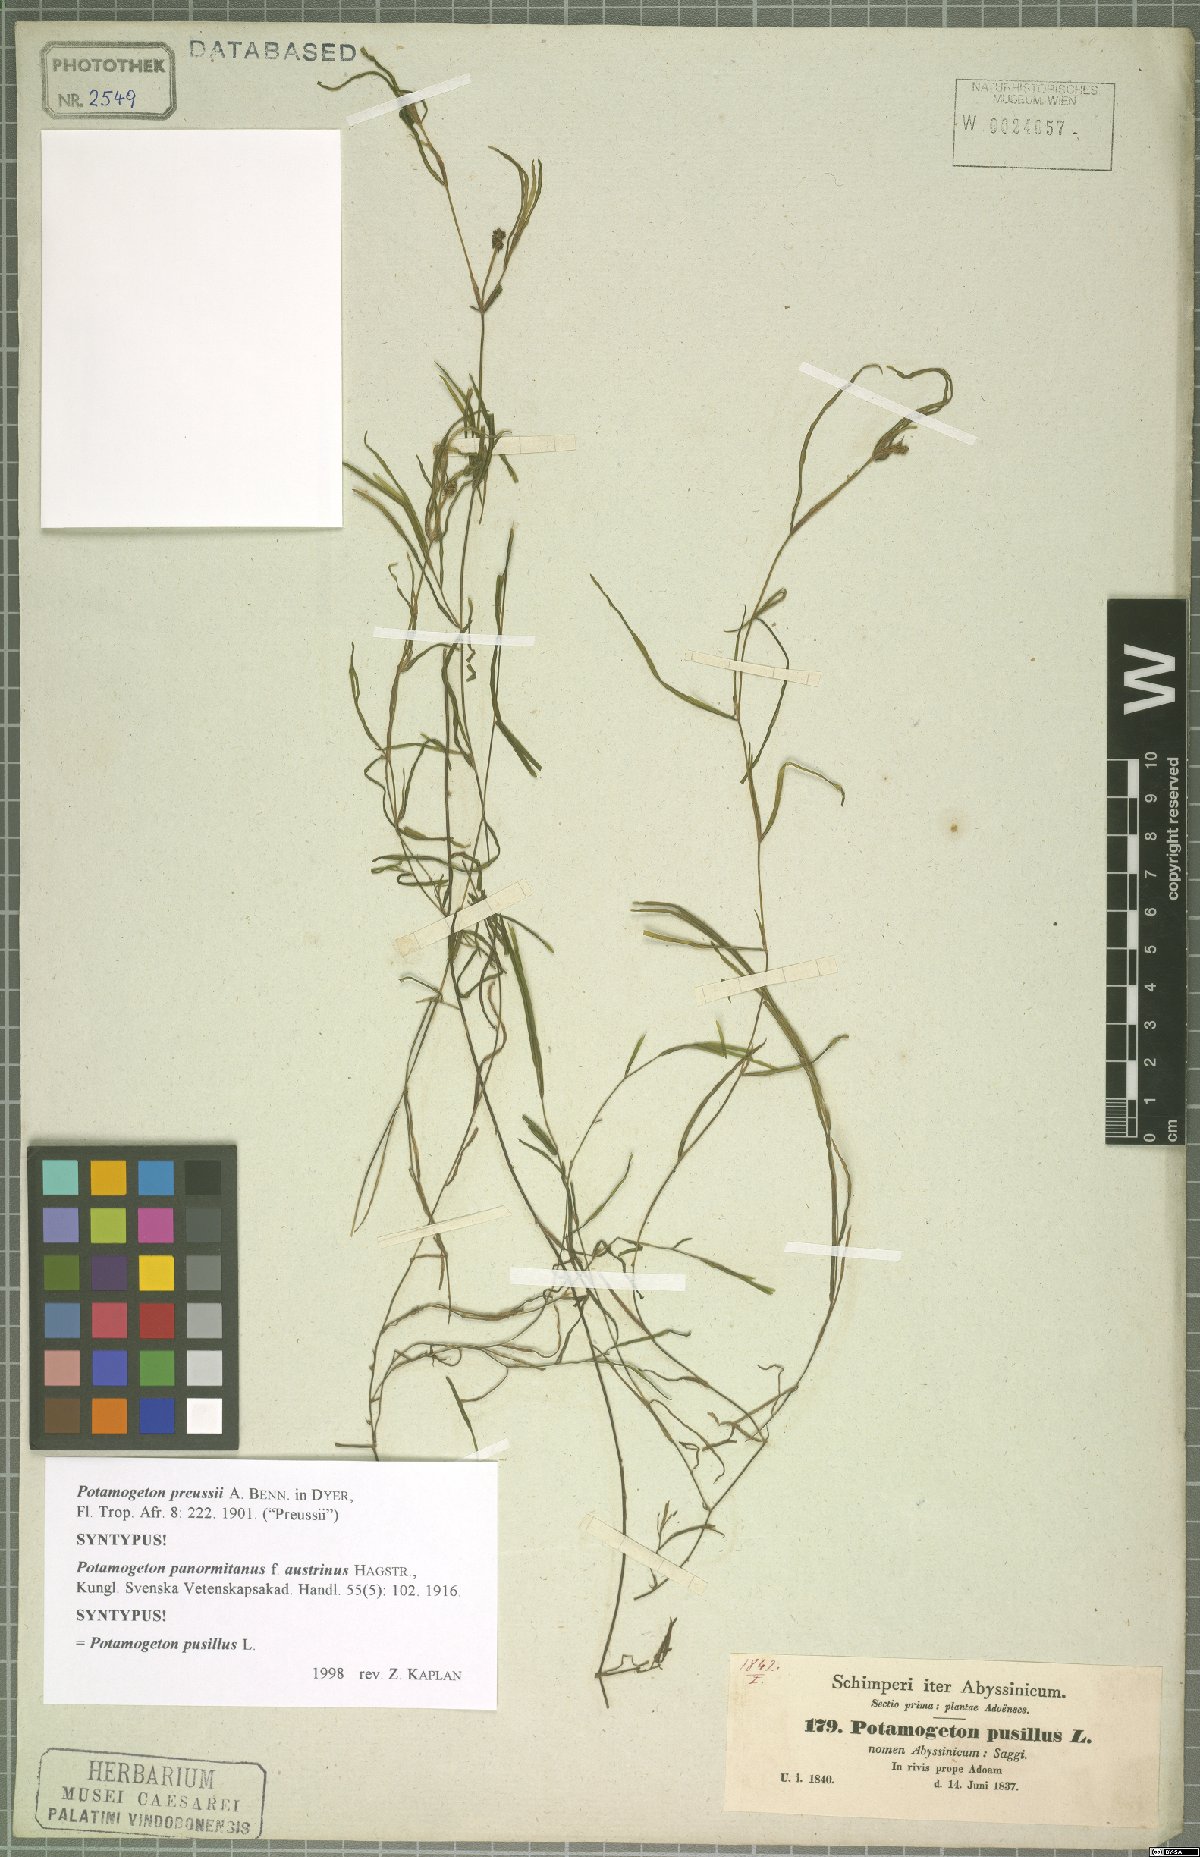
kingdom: Plantae
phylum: Tracheophyta
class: Liliopsida
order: Alismatales
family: Potamogetonaceae
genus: Potamogeton
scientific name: Potamogeton pusillus
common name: Lesser pondweed
